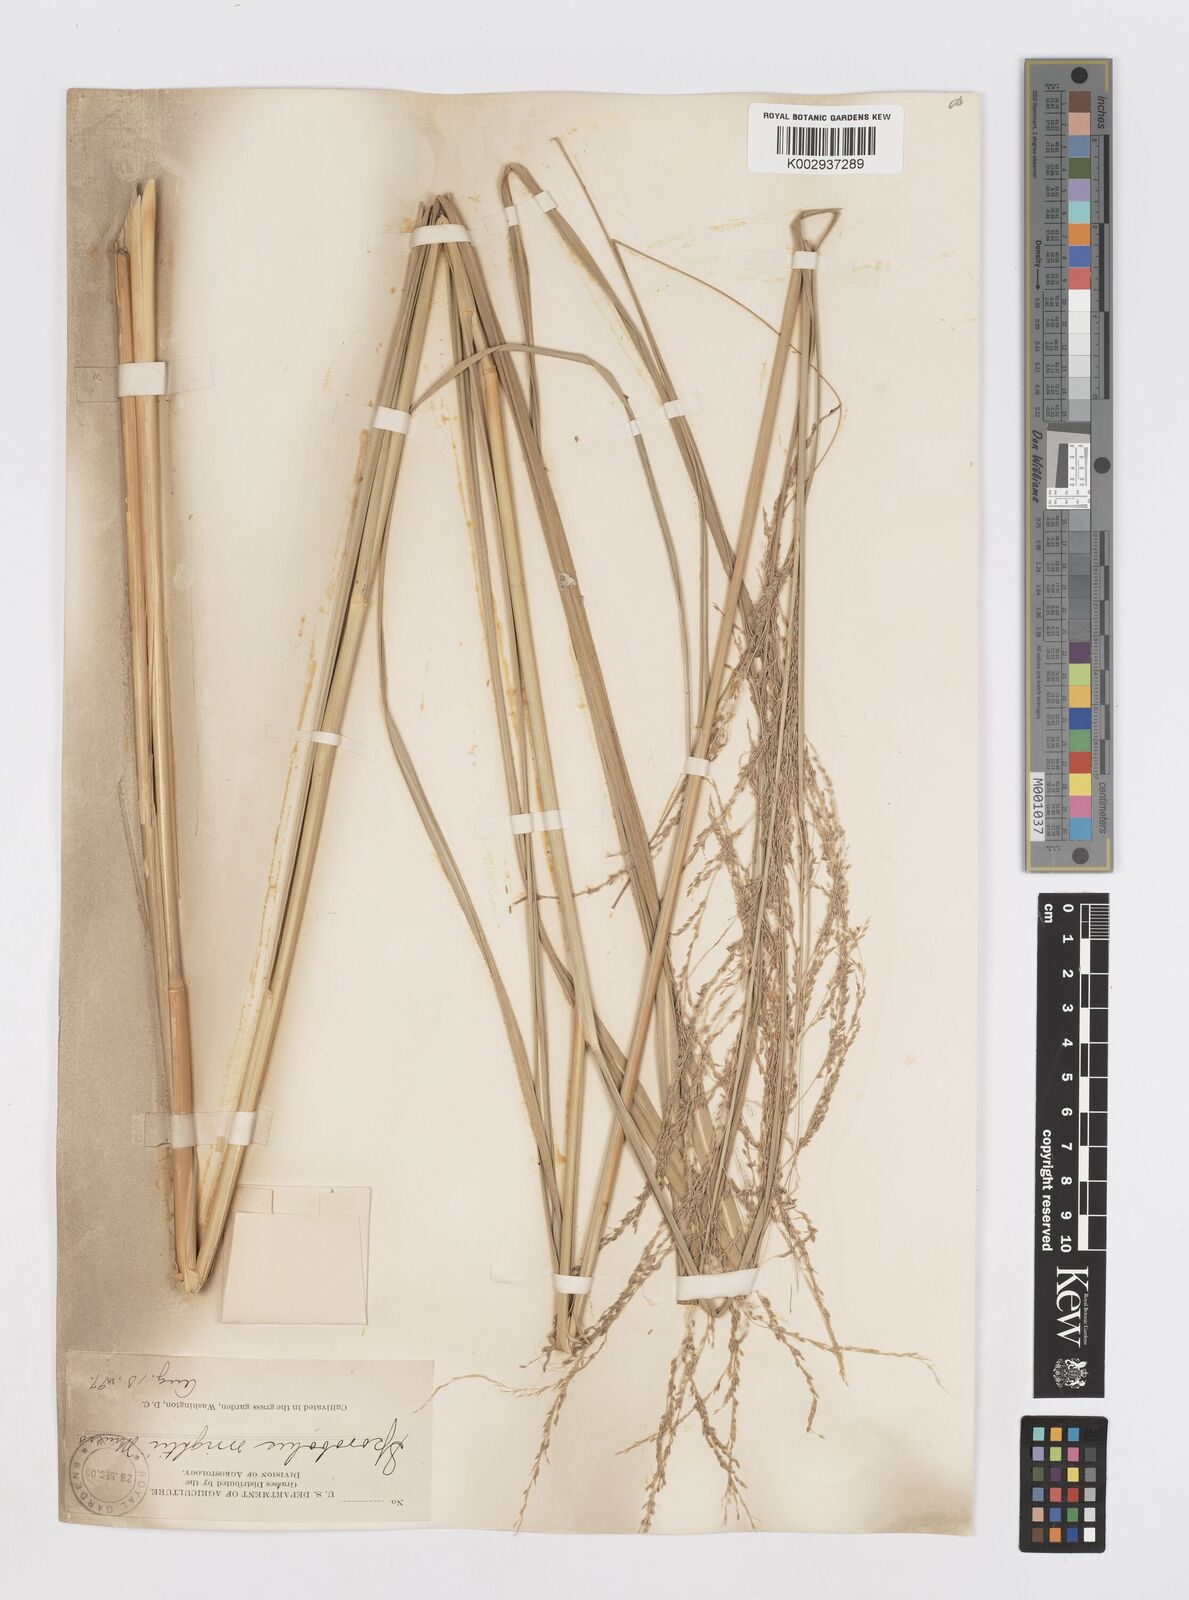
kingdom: Plantae
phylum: Tracheophyta
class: Liliopsida
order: Poales
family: Poaceae
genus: Sporobolus
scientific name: Sporobolus wrightii
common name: Big alkali sacaton
